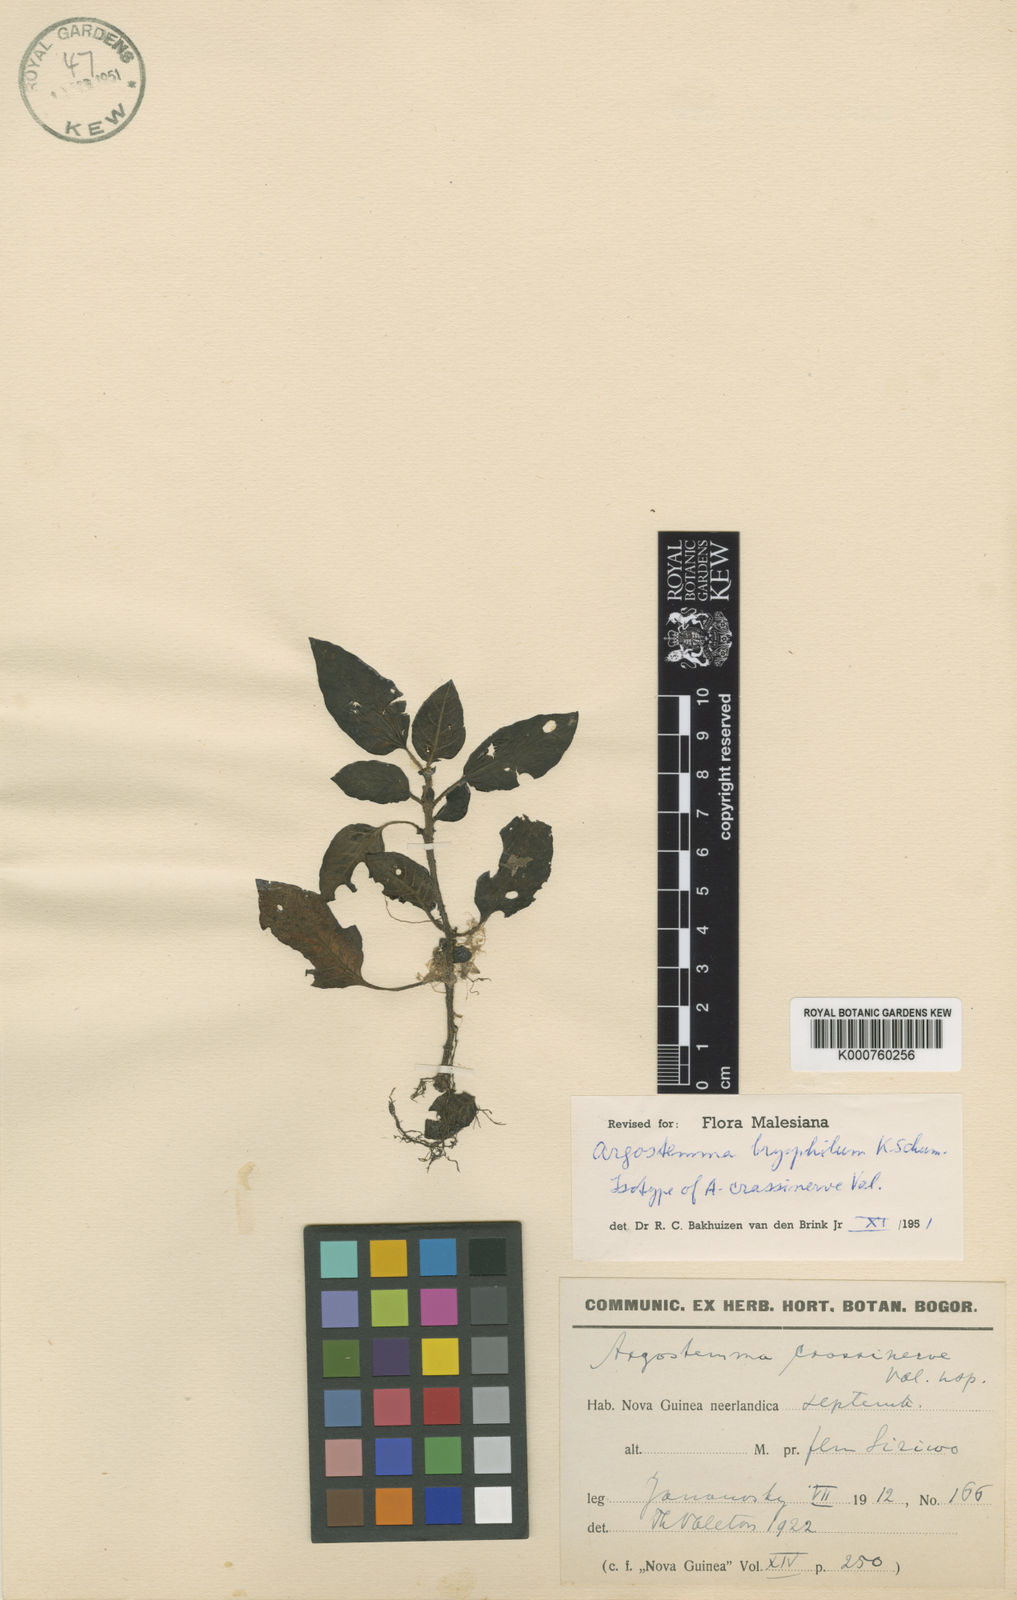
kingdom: Plantae
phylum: Tracheophyta
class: Magnoliopsida
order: Gentianales
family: Rubiaceae
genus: Argostemma
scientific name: Argostemma bryophilum
